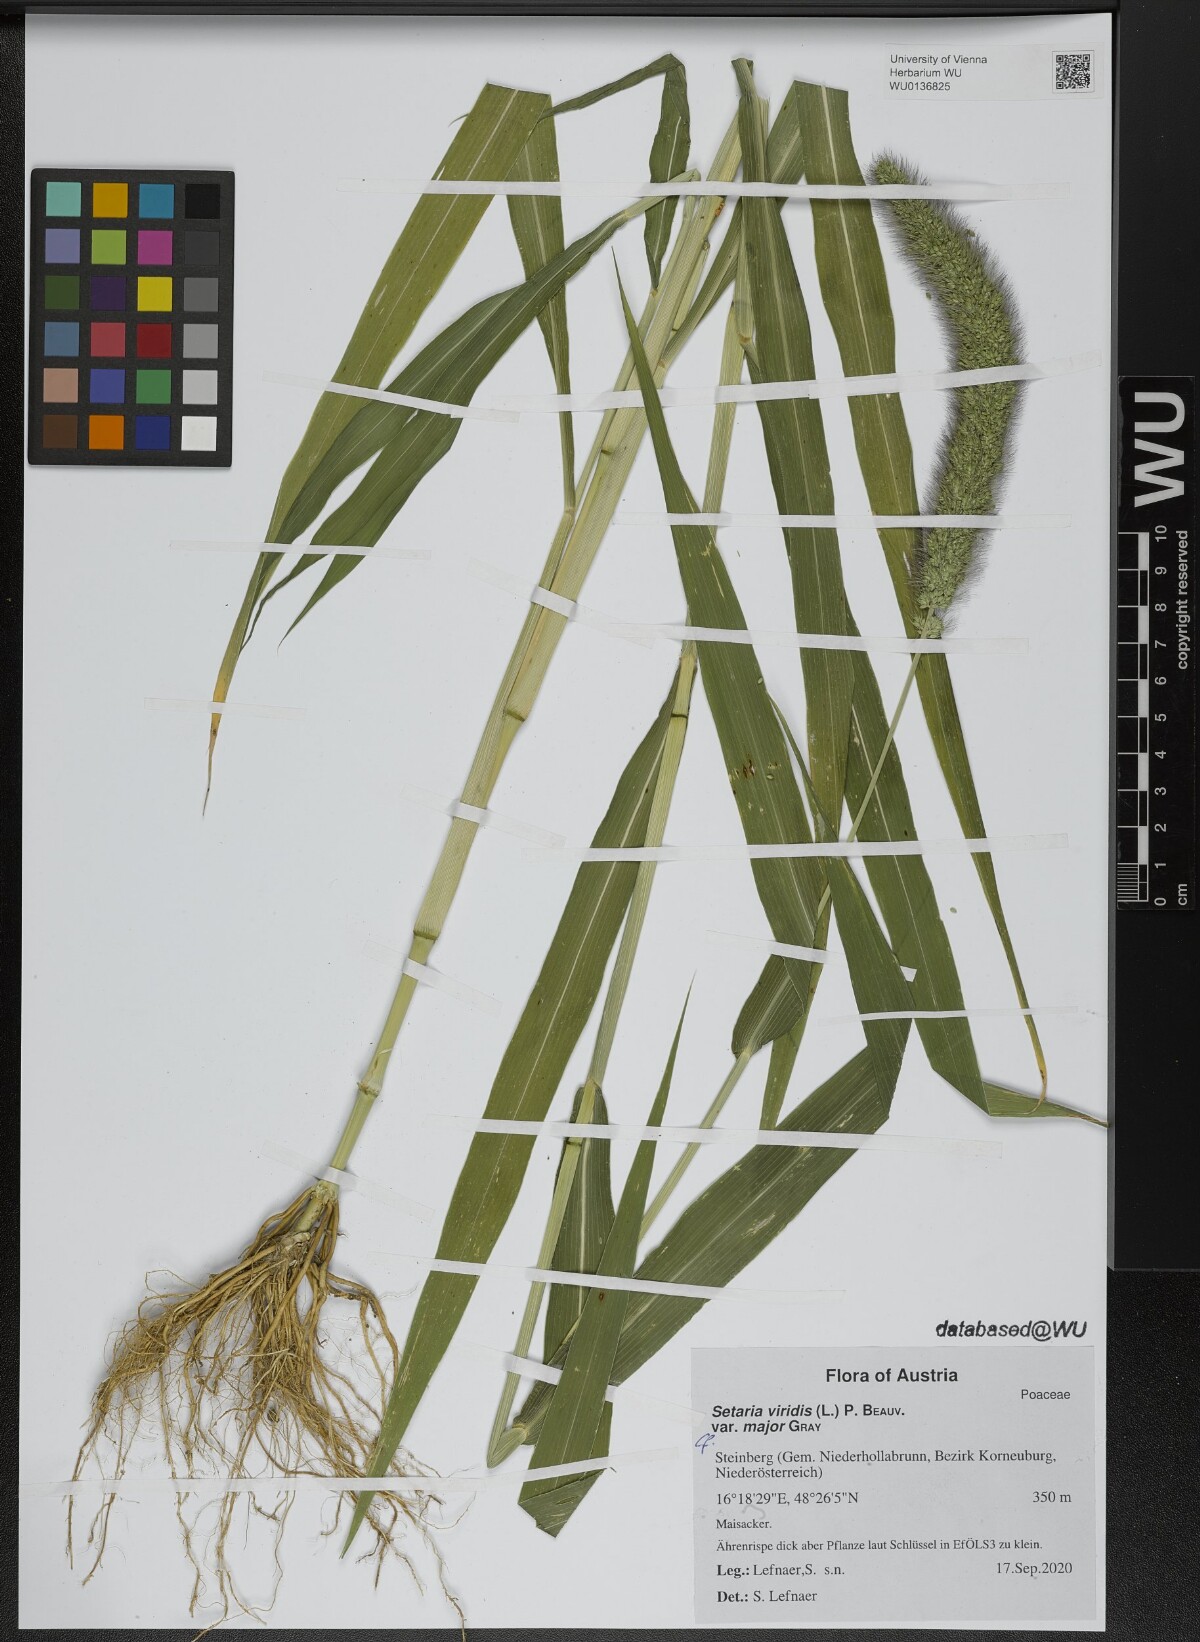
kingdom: Plantae
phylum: Tracheophyta
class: Liliopsida
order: Poales
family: Poaceae
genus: Setaria
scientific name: Setaria viridis
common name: Green bristlegrass
